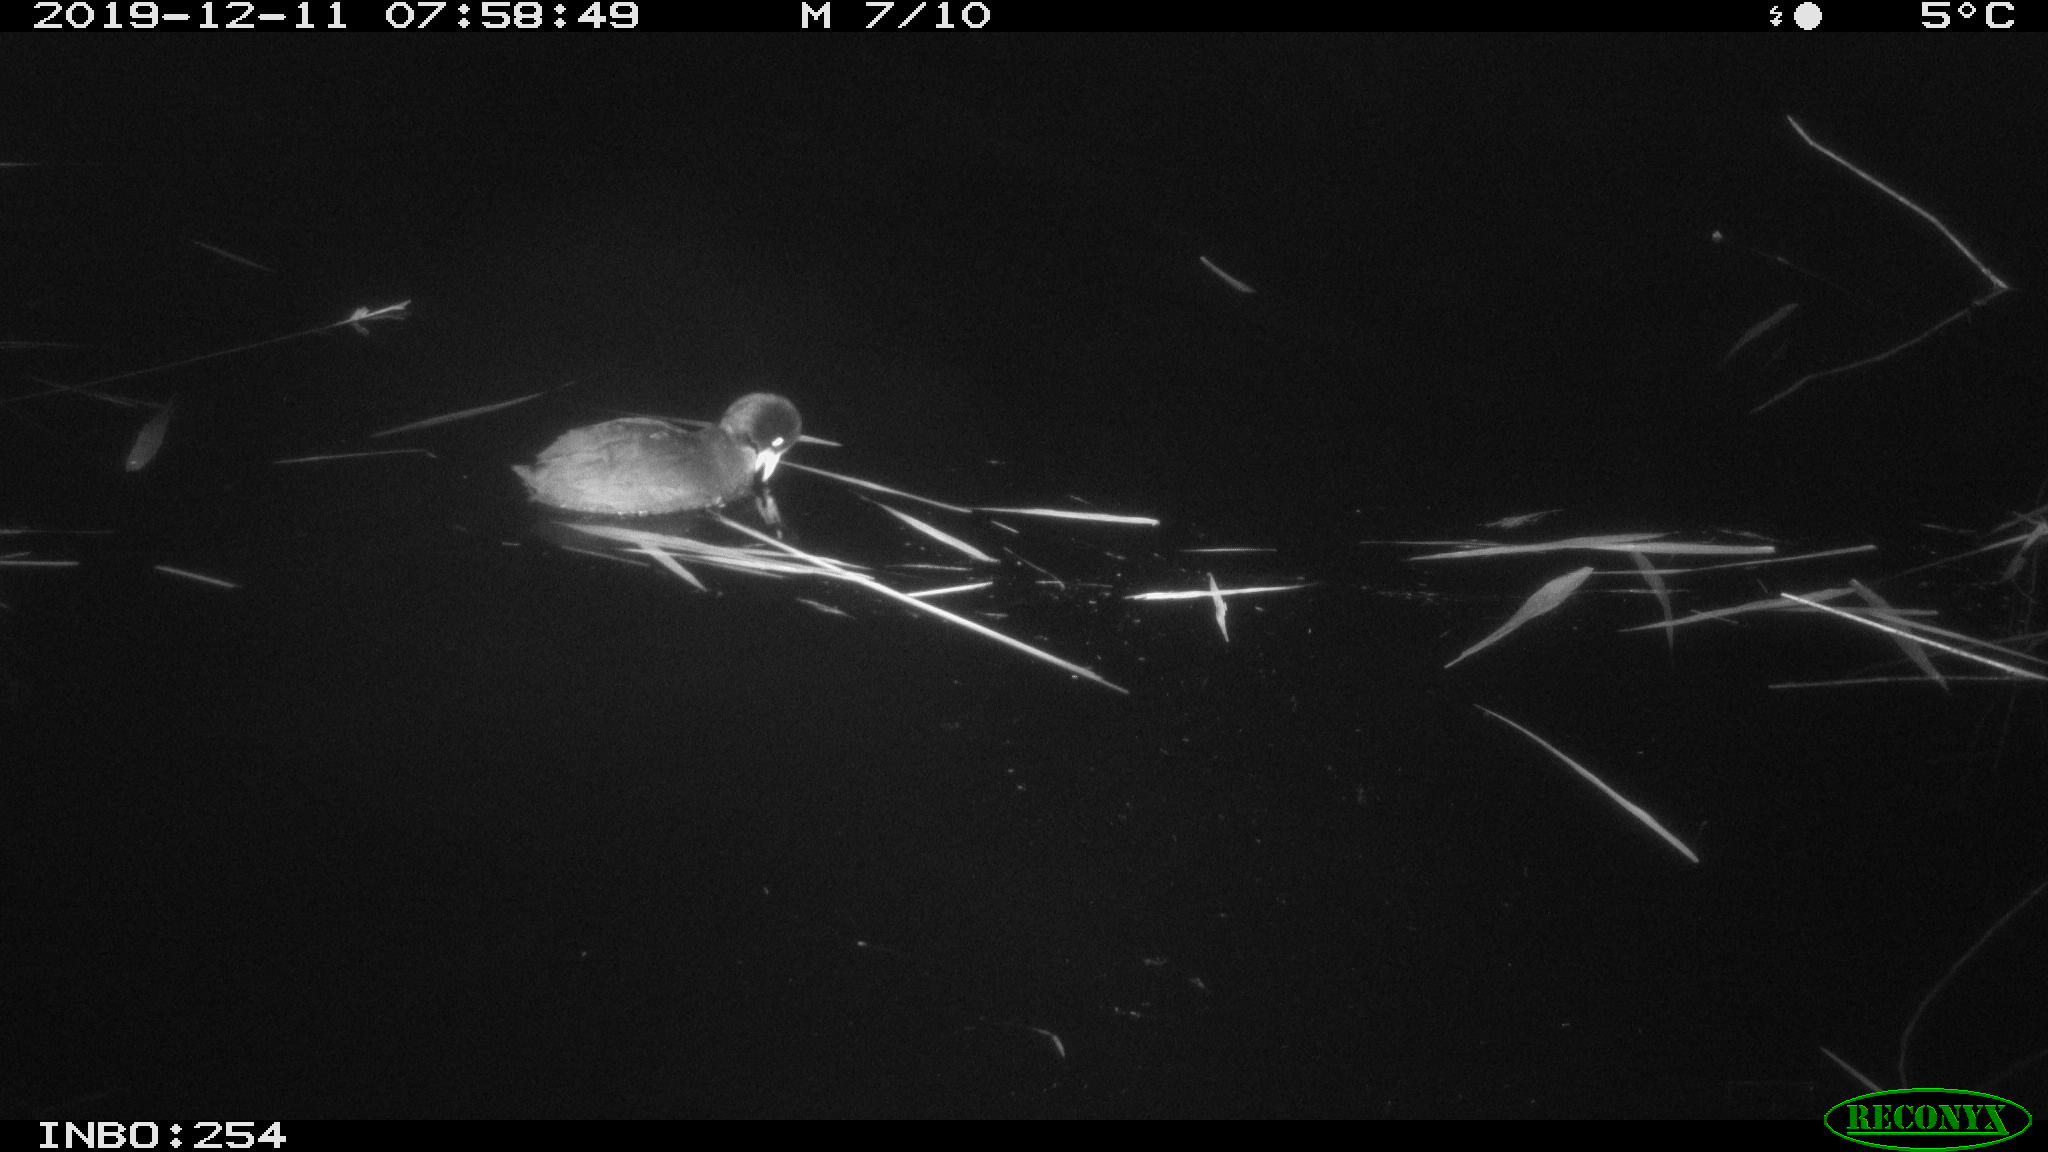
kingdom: Animalia
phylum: Chordata
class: Aves
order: Gruiformes
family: Rallidae
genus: Fulica
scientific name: Fulica atra
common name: Eurasian coot
